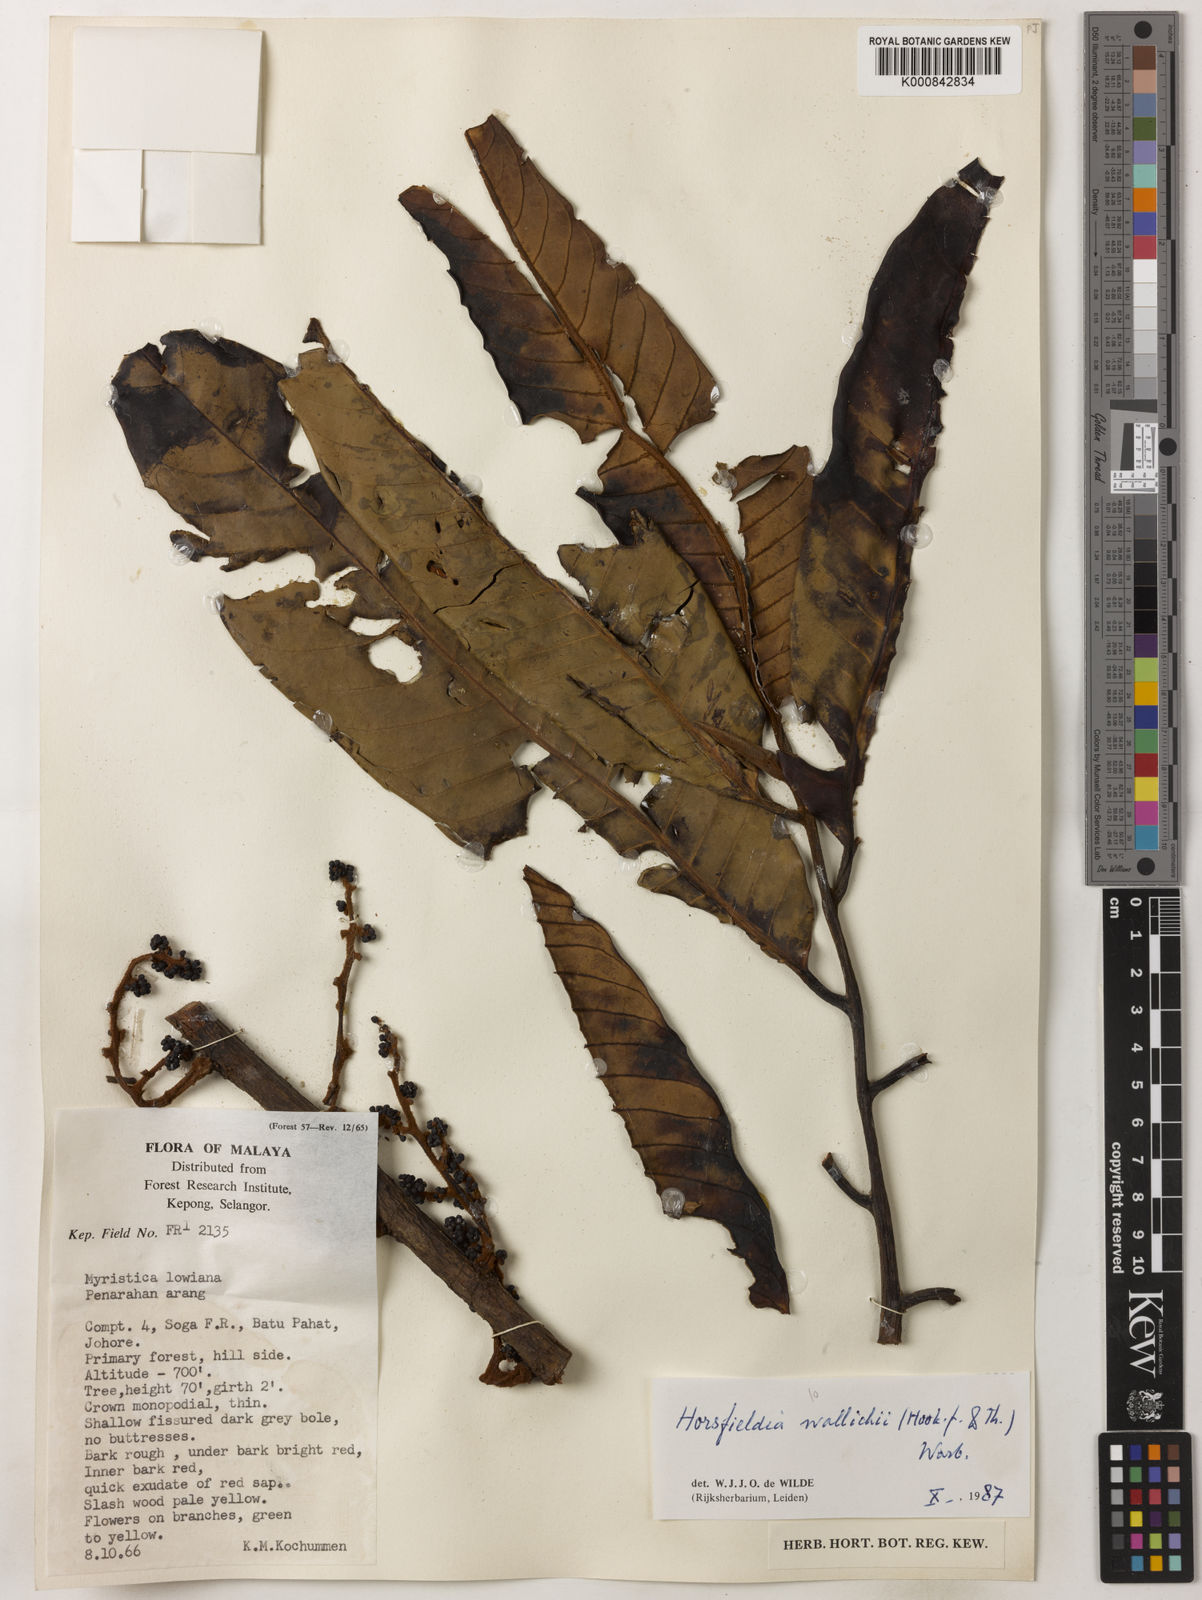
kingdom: Plantae
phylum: Tracheophyta
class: Magnoliopsida
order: Magnoliales
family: Myristicaceae
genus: Horsfieldia
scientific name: Horsfieldia wallichii
